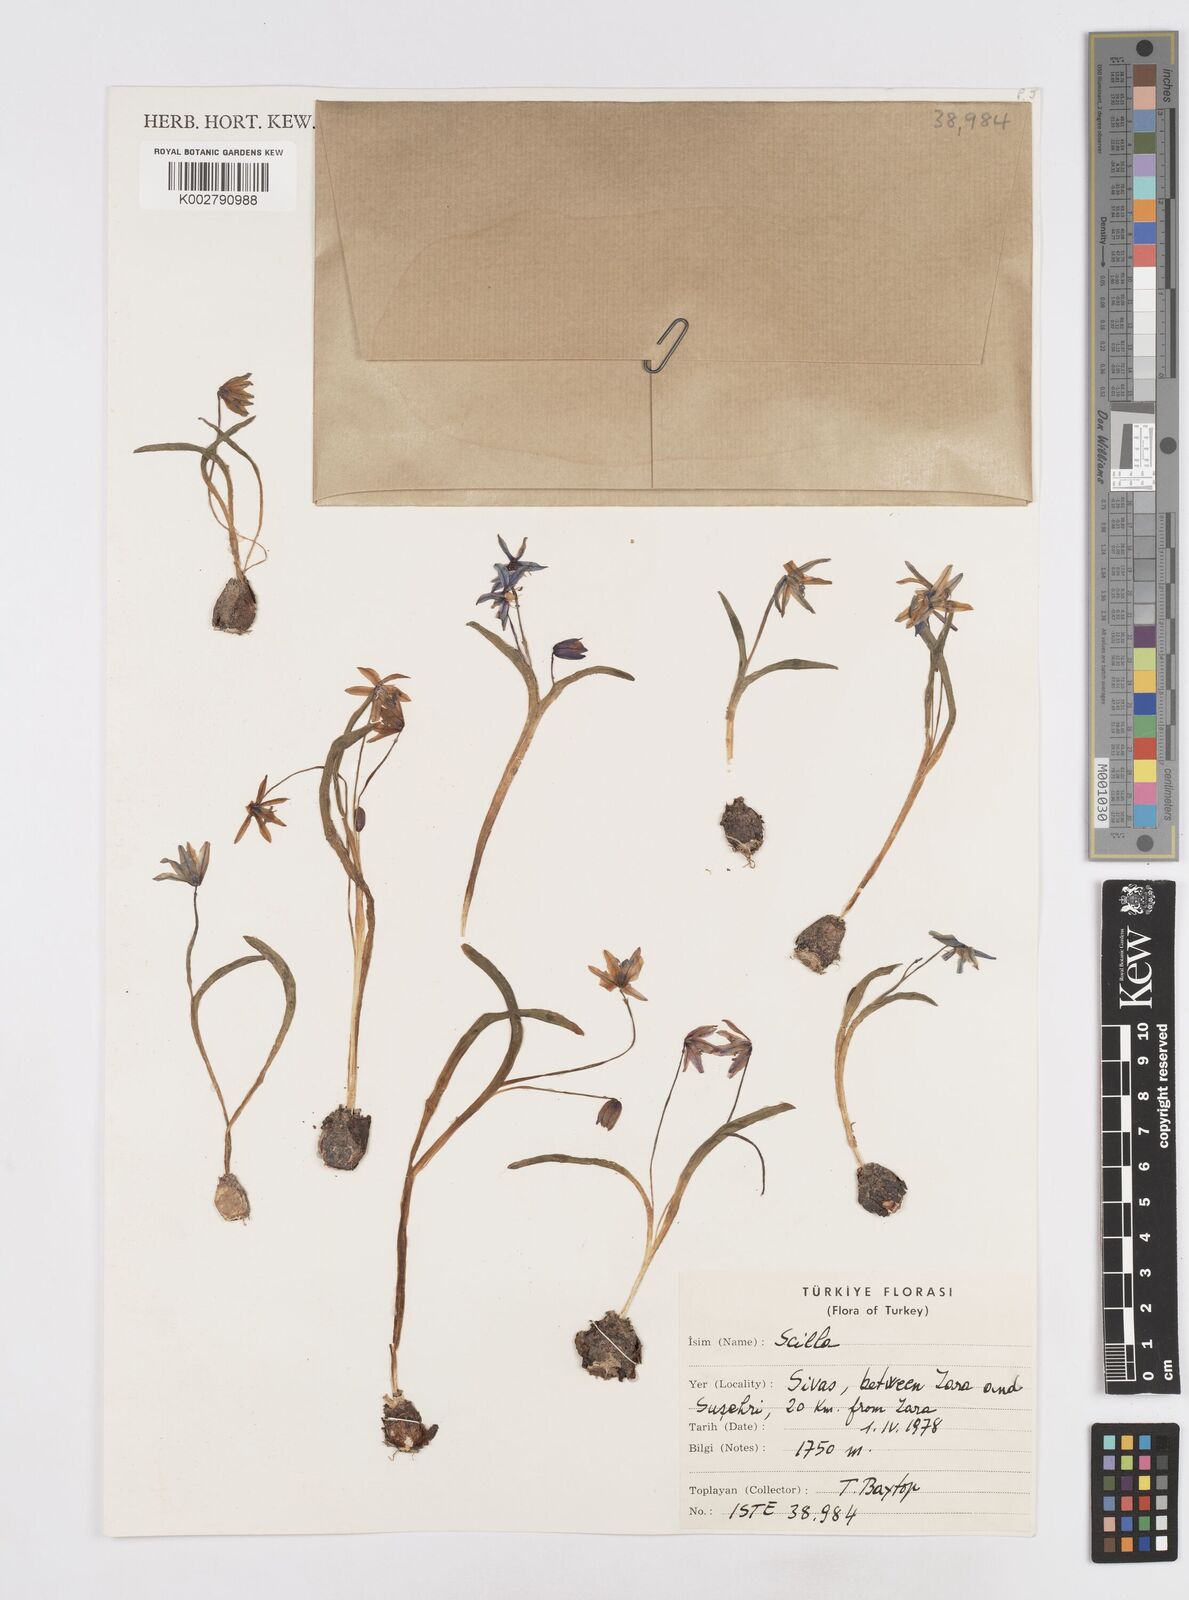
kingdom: Plantae
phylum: Tracheophyta
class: Liliopsida
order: Asparagales
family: Asparagaceae
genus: Scilla
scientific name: Scilla
